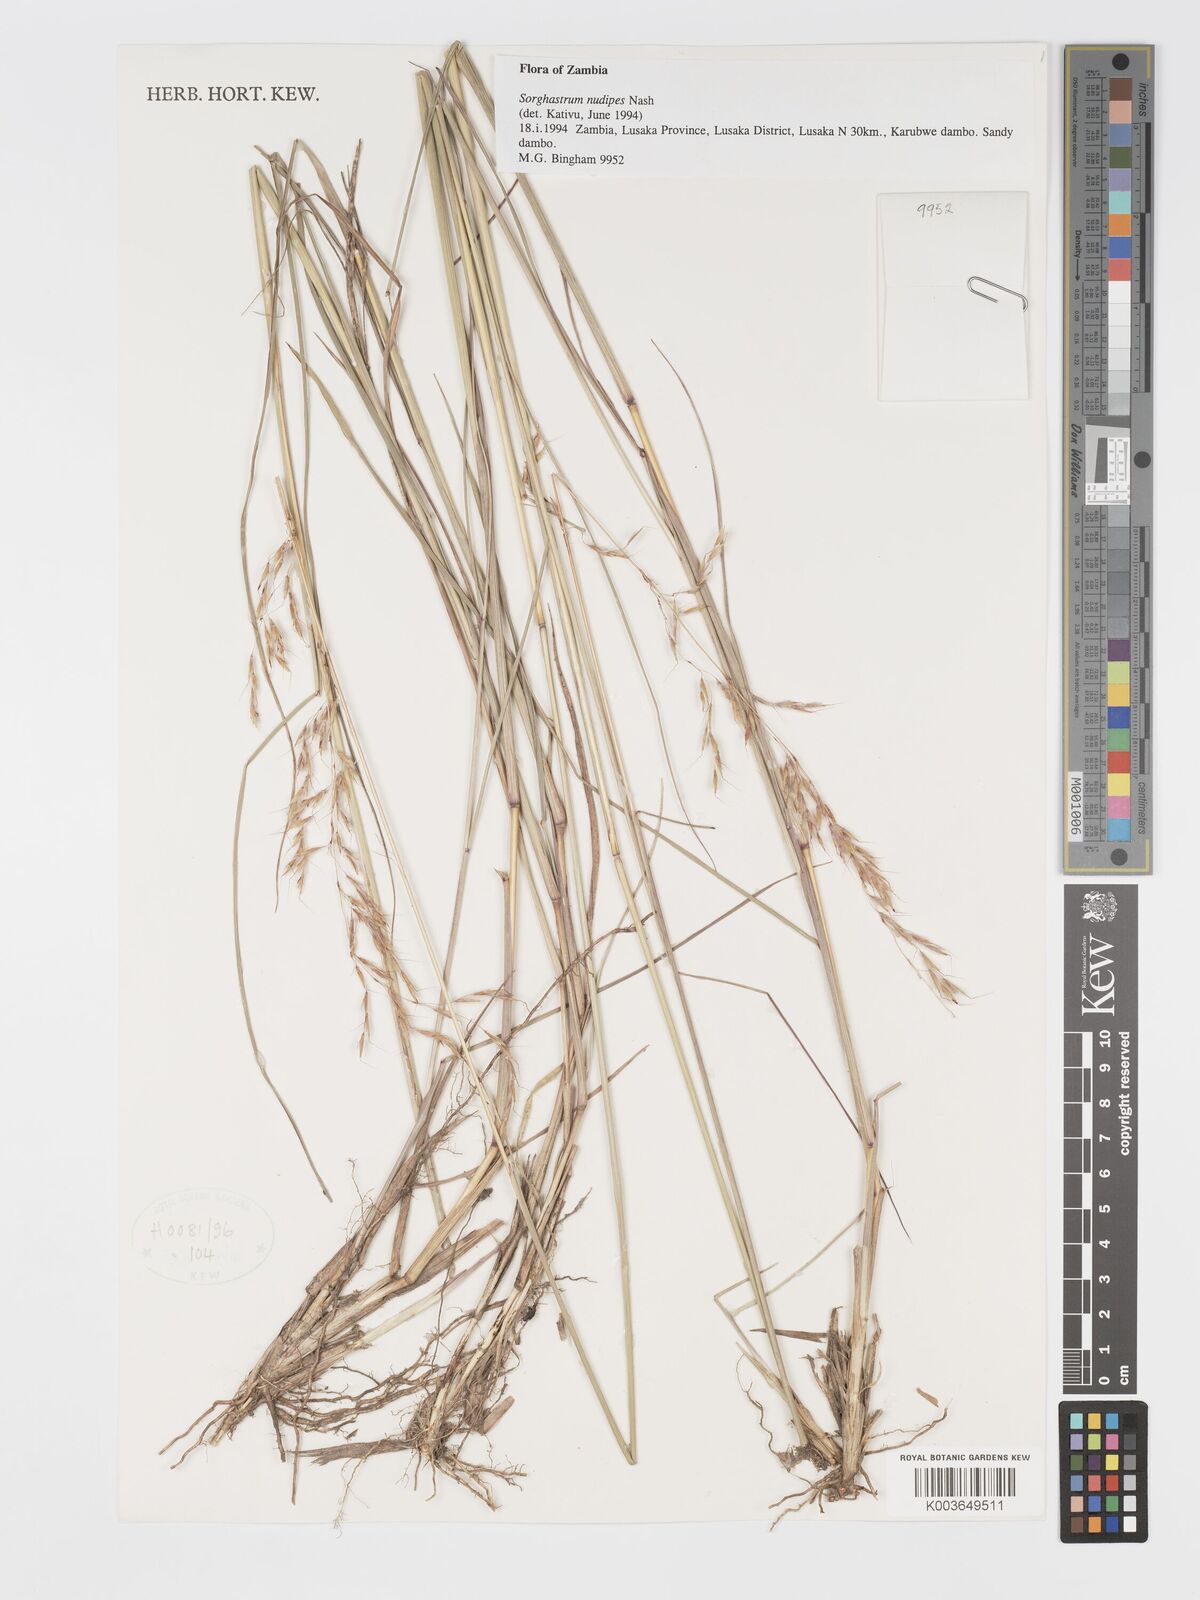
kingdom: Plantae
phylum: Tracheophyta
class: Liliopsida
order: Poales
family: Poaceae
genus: Sorghastrum
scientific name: Sorghastrum nudipes
